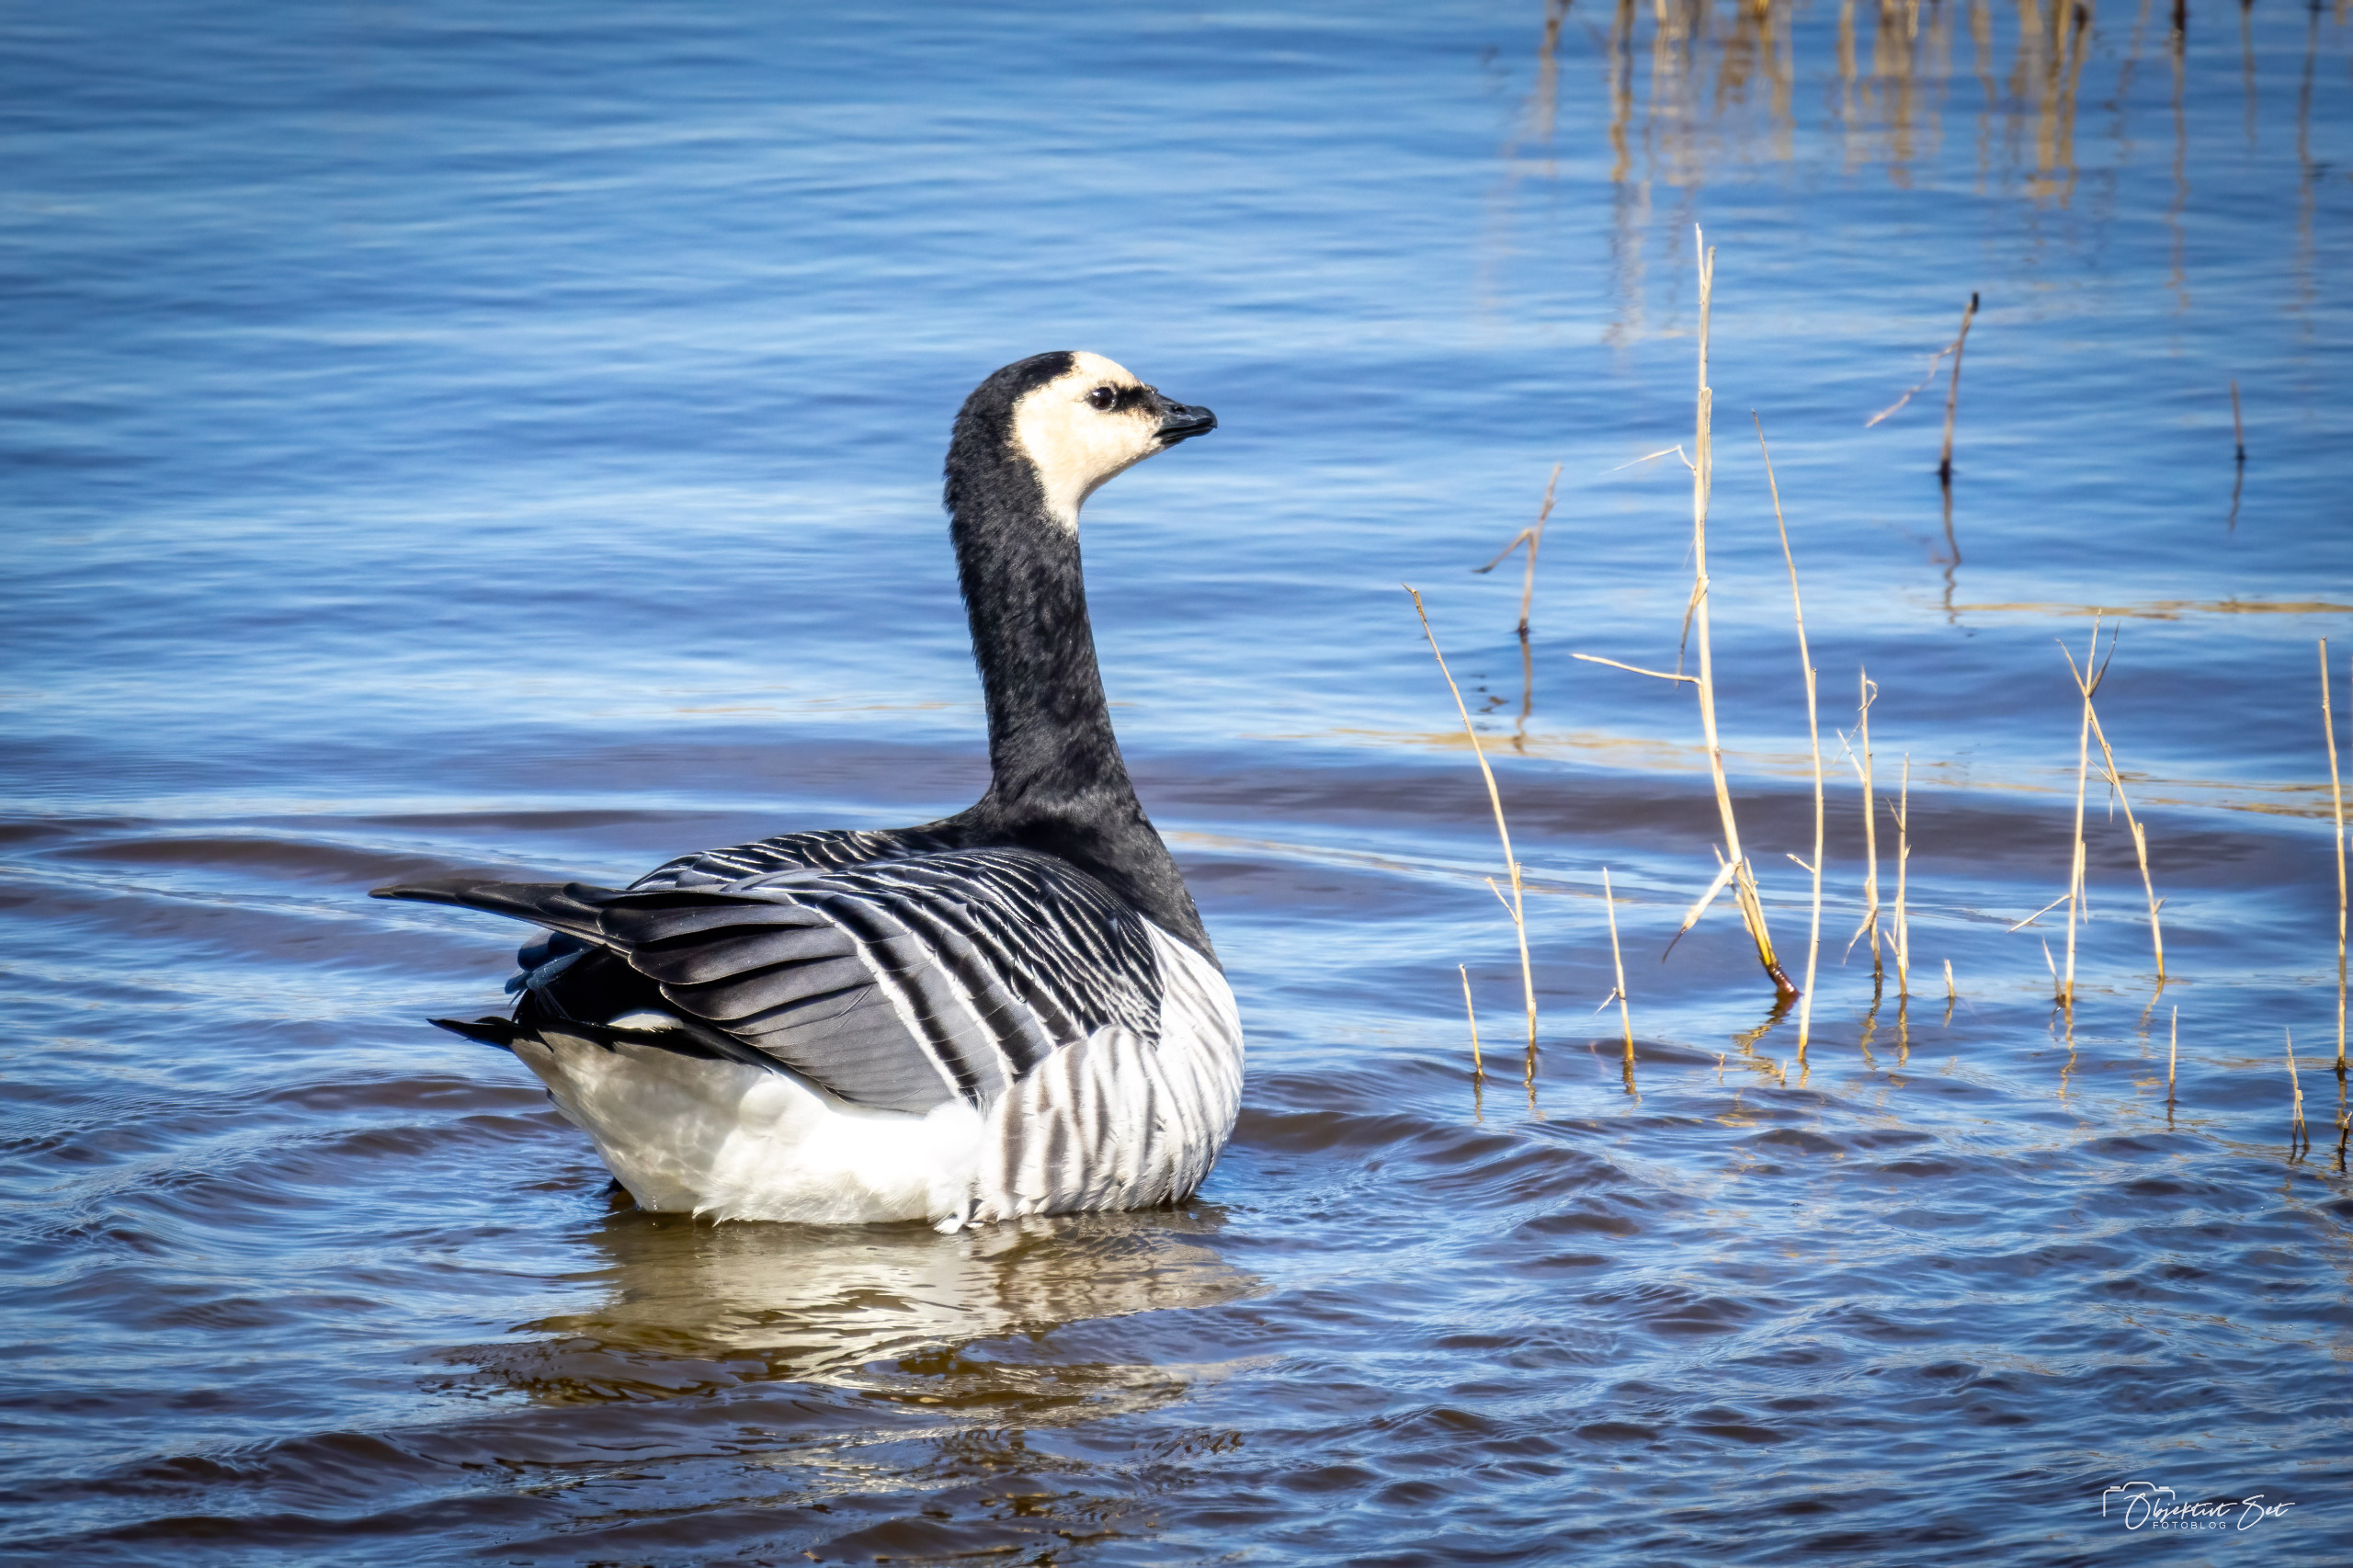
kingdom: Animalia
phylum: Chordata
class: Aves
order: Anseriformes
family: Anatidae
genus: Branta
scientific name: Branta leucopsis
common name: Bramgås
